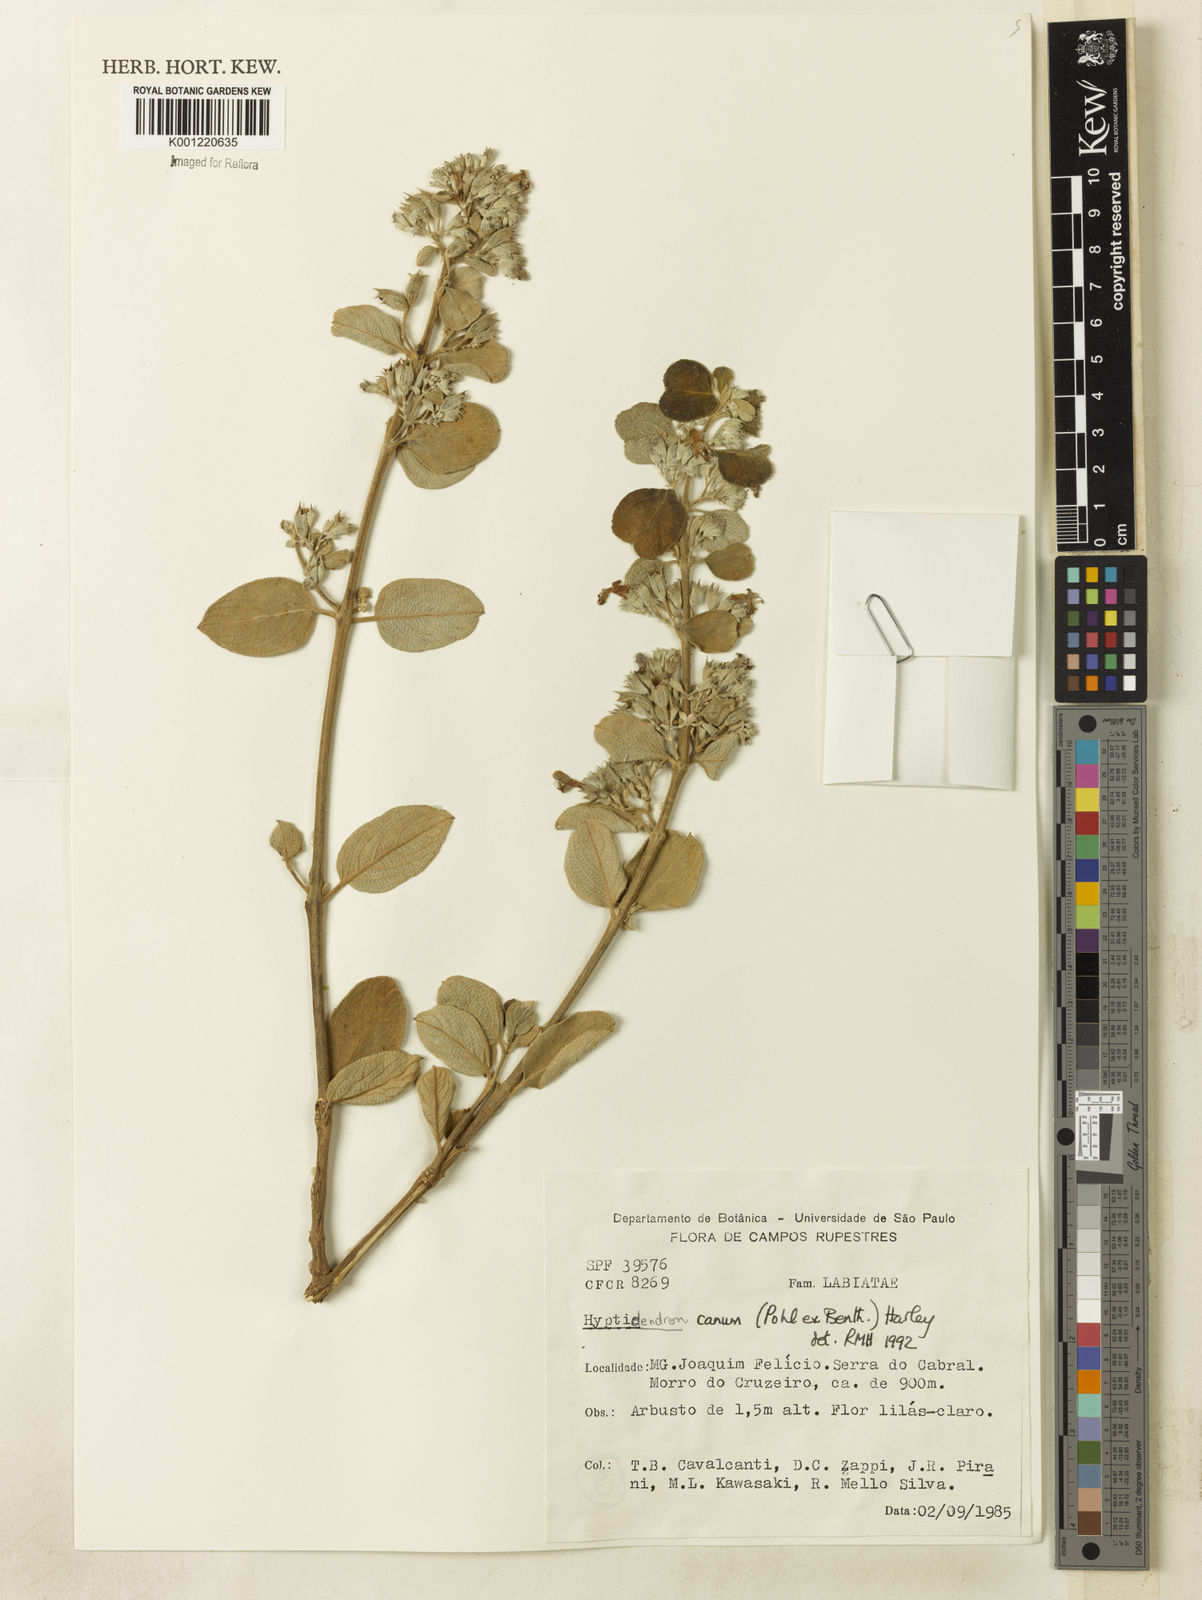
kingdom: Plantae
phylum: Tracheophyta
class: Magnoliopsida
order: Lamiales
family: Lamiaceae
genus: Hyptidendron
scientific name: Hyptidendron canum
